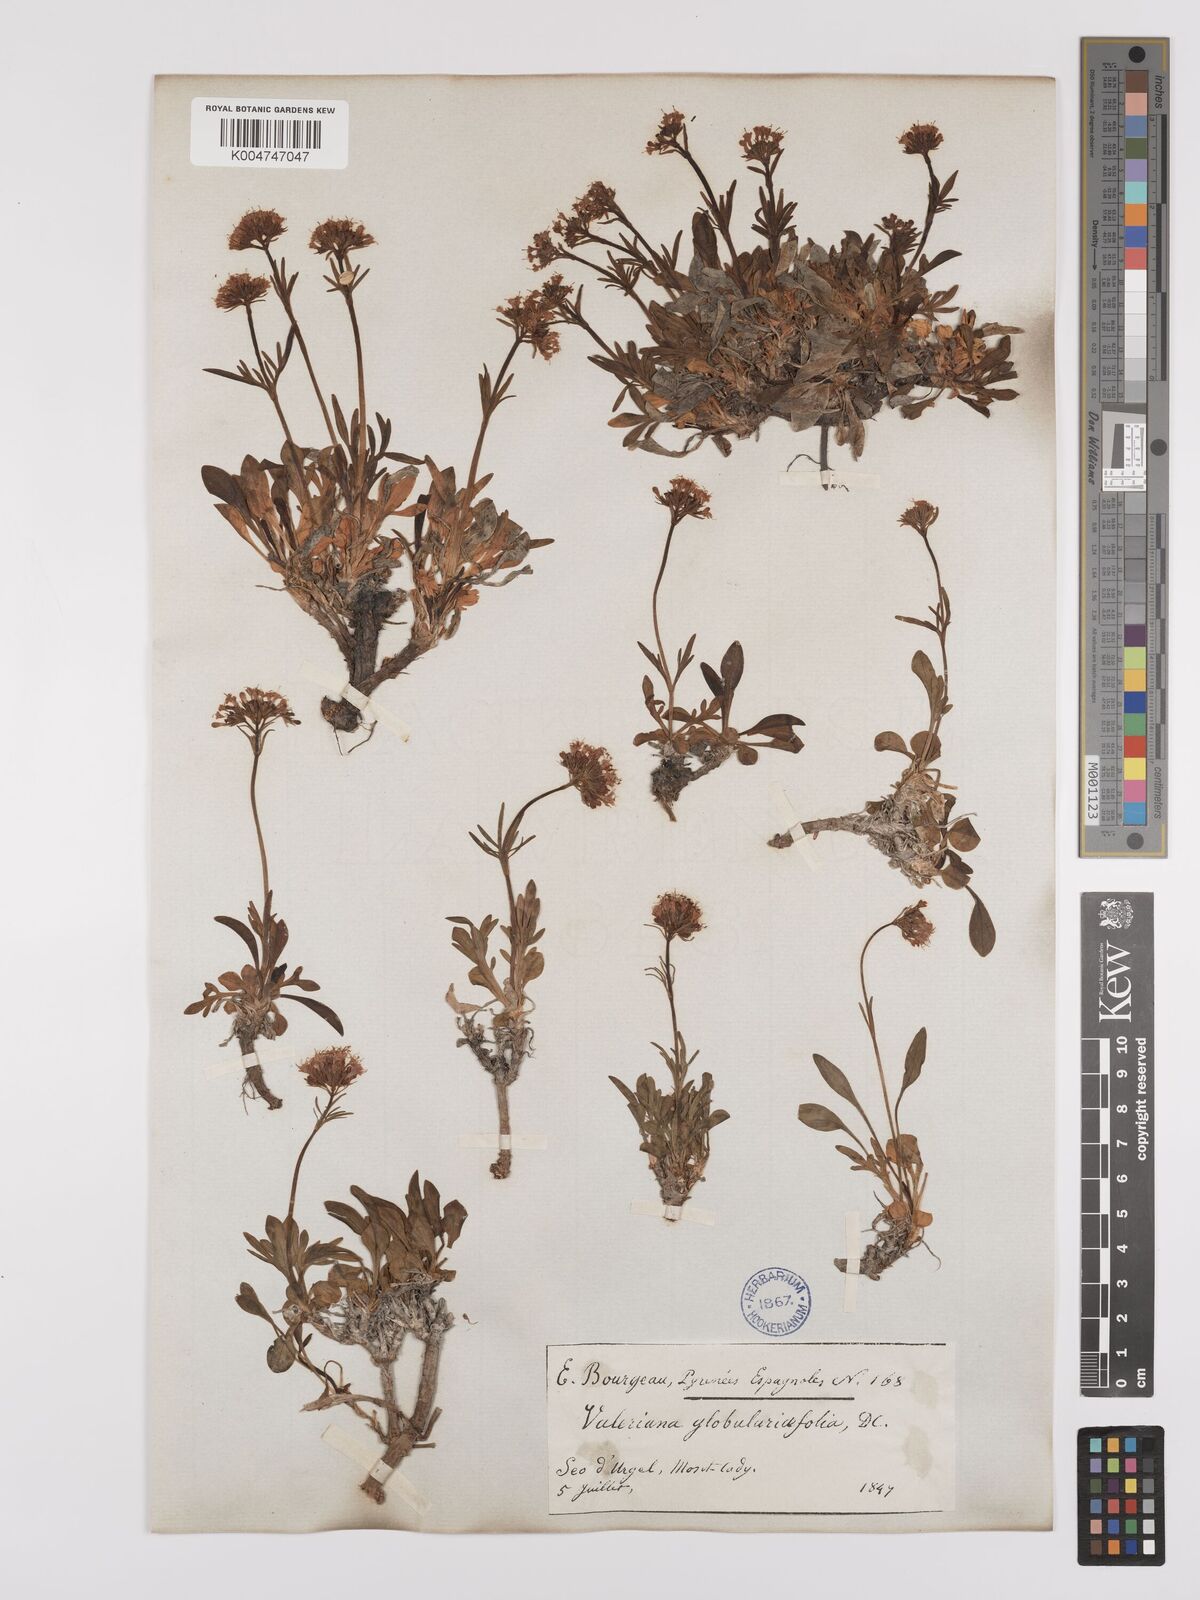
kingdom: Plantae
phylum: Tracheophyta
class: Magnoliopsida
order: Dipsacales
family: Caprifoliaceae
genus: Valeriana
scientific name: Valeriana apula
